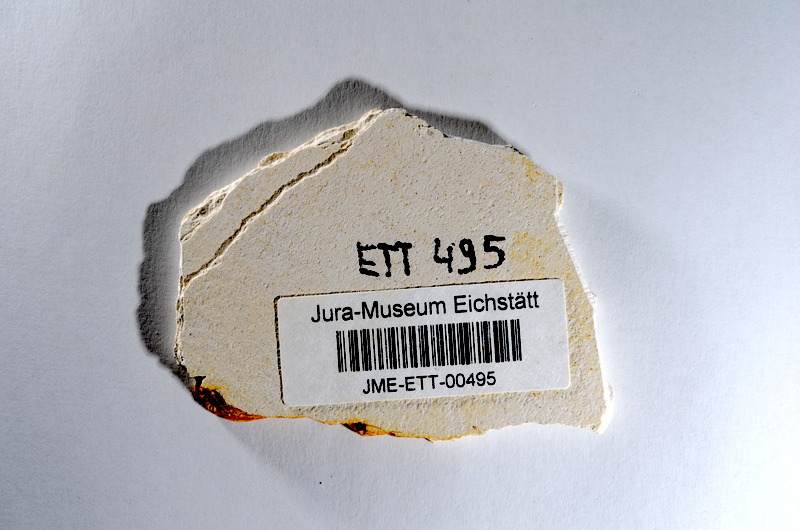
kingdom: Animalia
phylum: Chordata
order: Salmoniformes
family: Orthogonikleithridae
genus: Orthogonikleithrus
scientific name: Orthogonikleithrus hoelli
